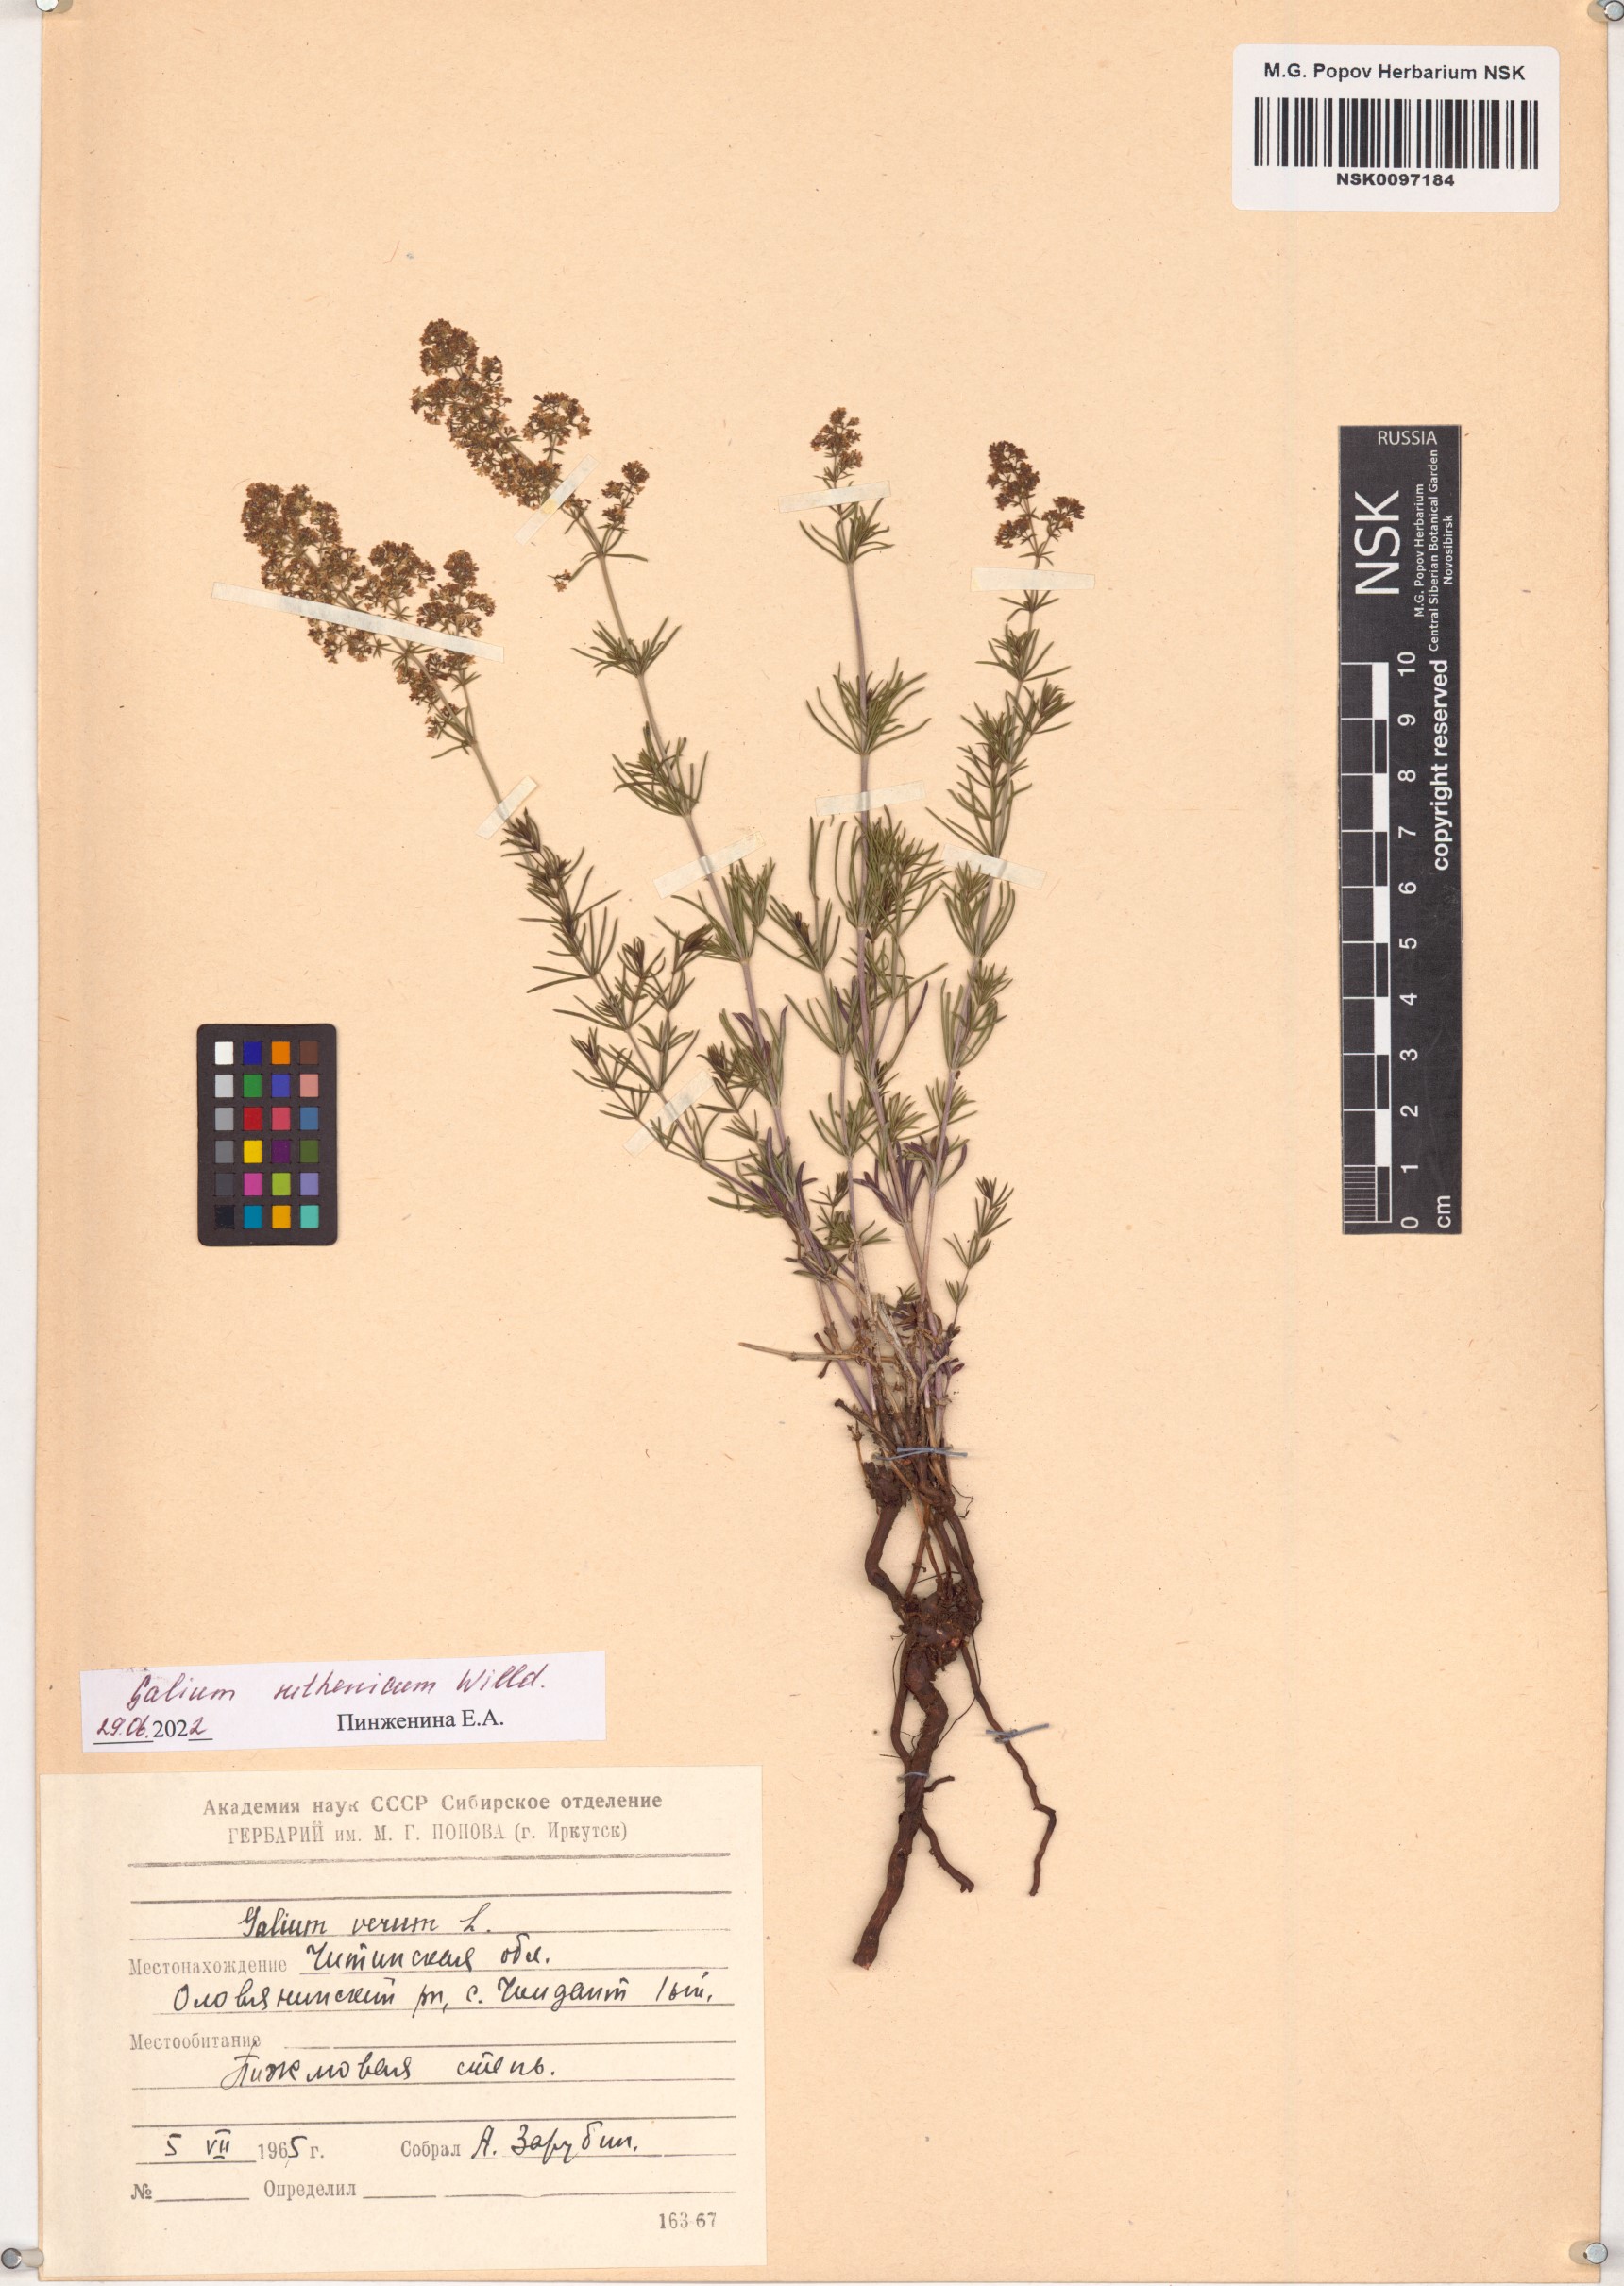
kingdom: Plantae
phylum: Tracheophyta
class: Magnoliopsida
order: Gentianales
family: Rubiaceae
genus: Galium
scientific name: Galium verum
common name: Lady's bedstraw
